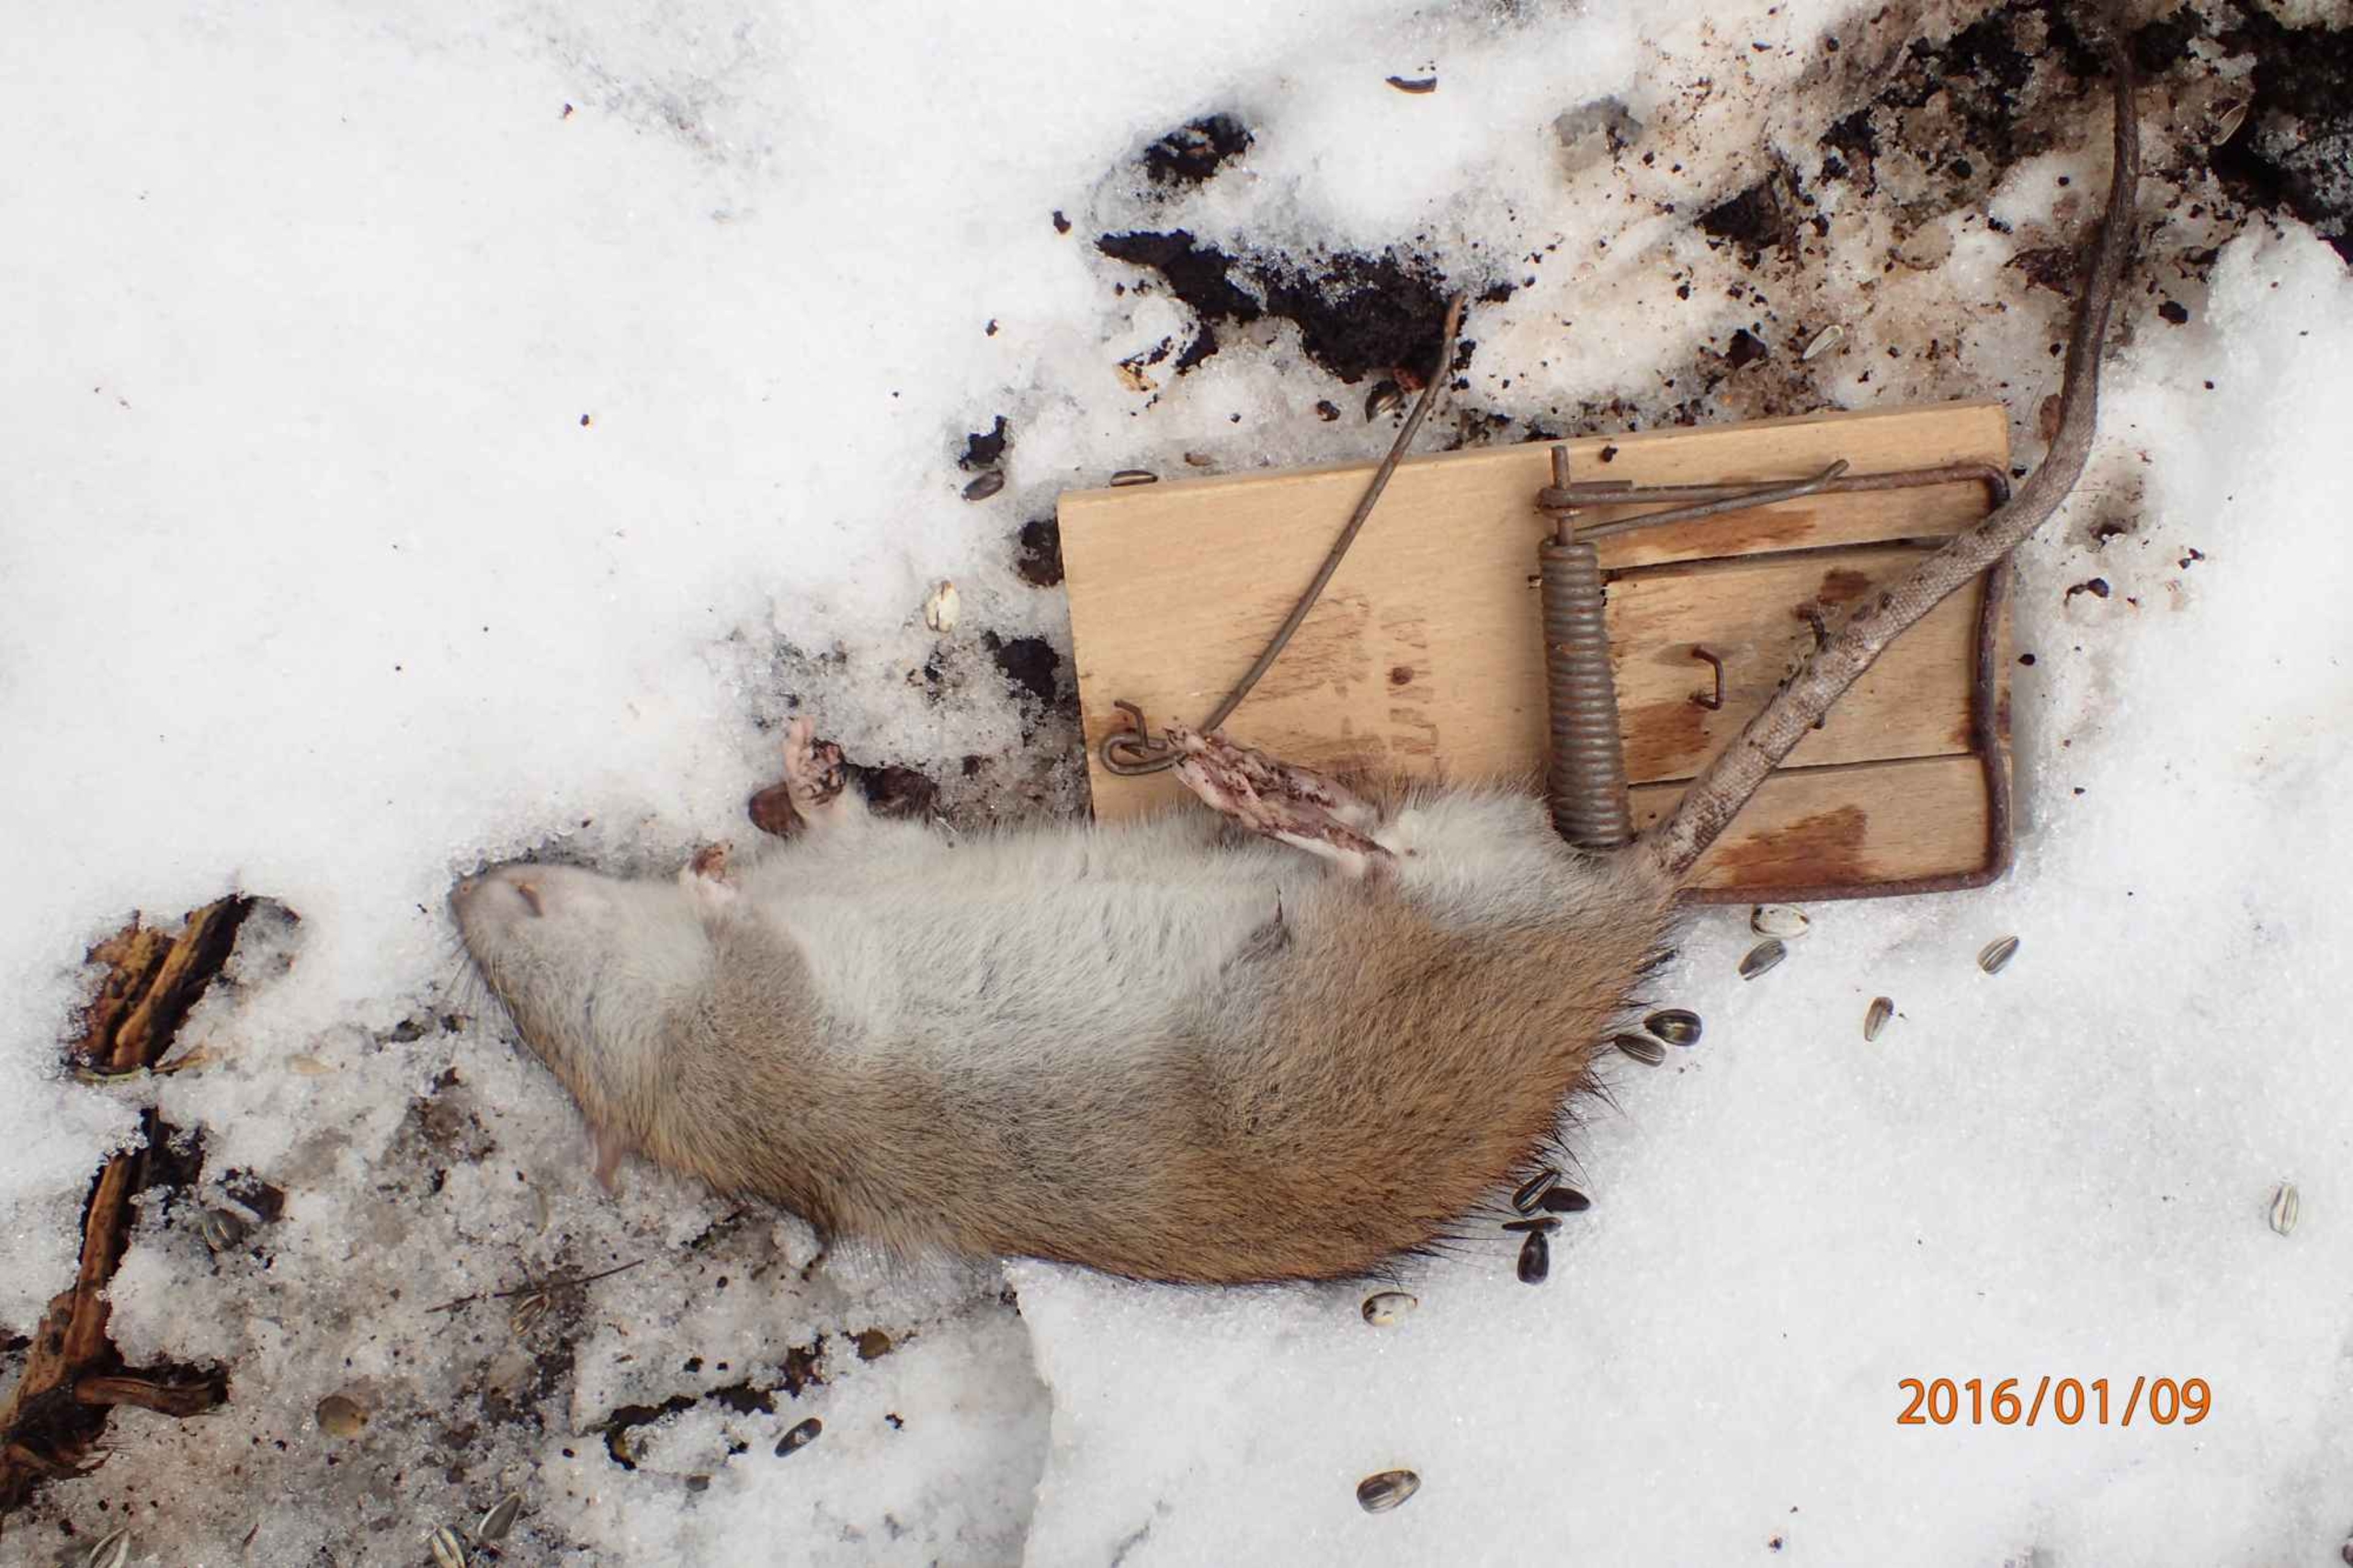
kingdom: Animalia
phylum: Chordata
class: Mammalia
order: Rodentia
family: Muridae
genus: Rattus
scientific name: Rattus norvegicus
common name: Brun rotte
